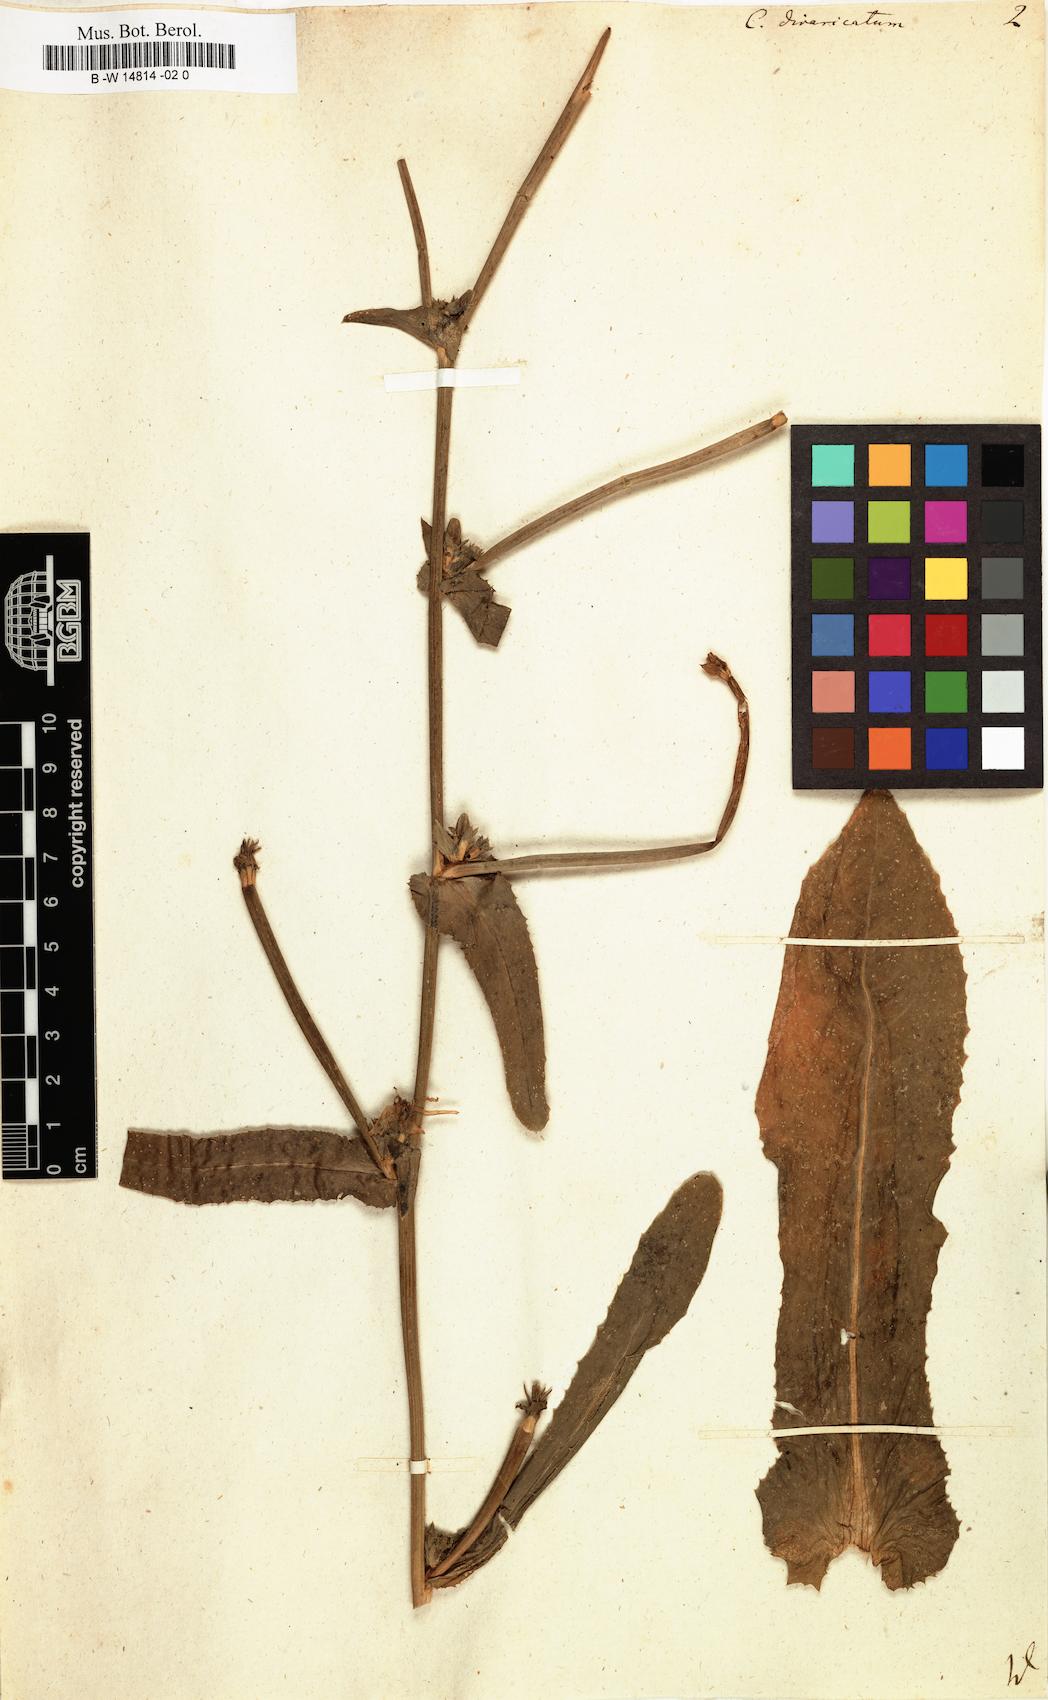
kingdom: Plantae
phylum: Tracheophyta
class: Magnoliopsida
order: Asterales
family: Asteraceae
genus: Cichorium
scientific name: Cichorium
